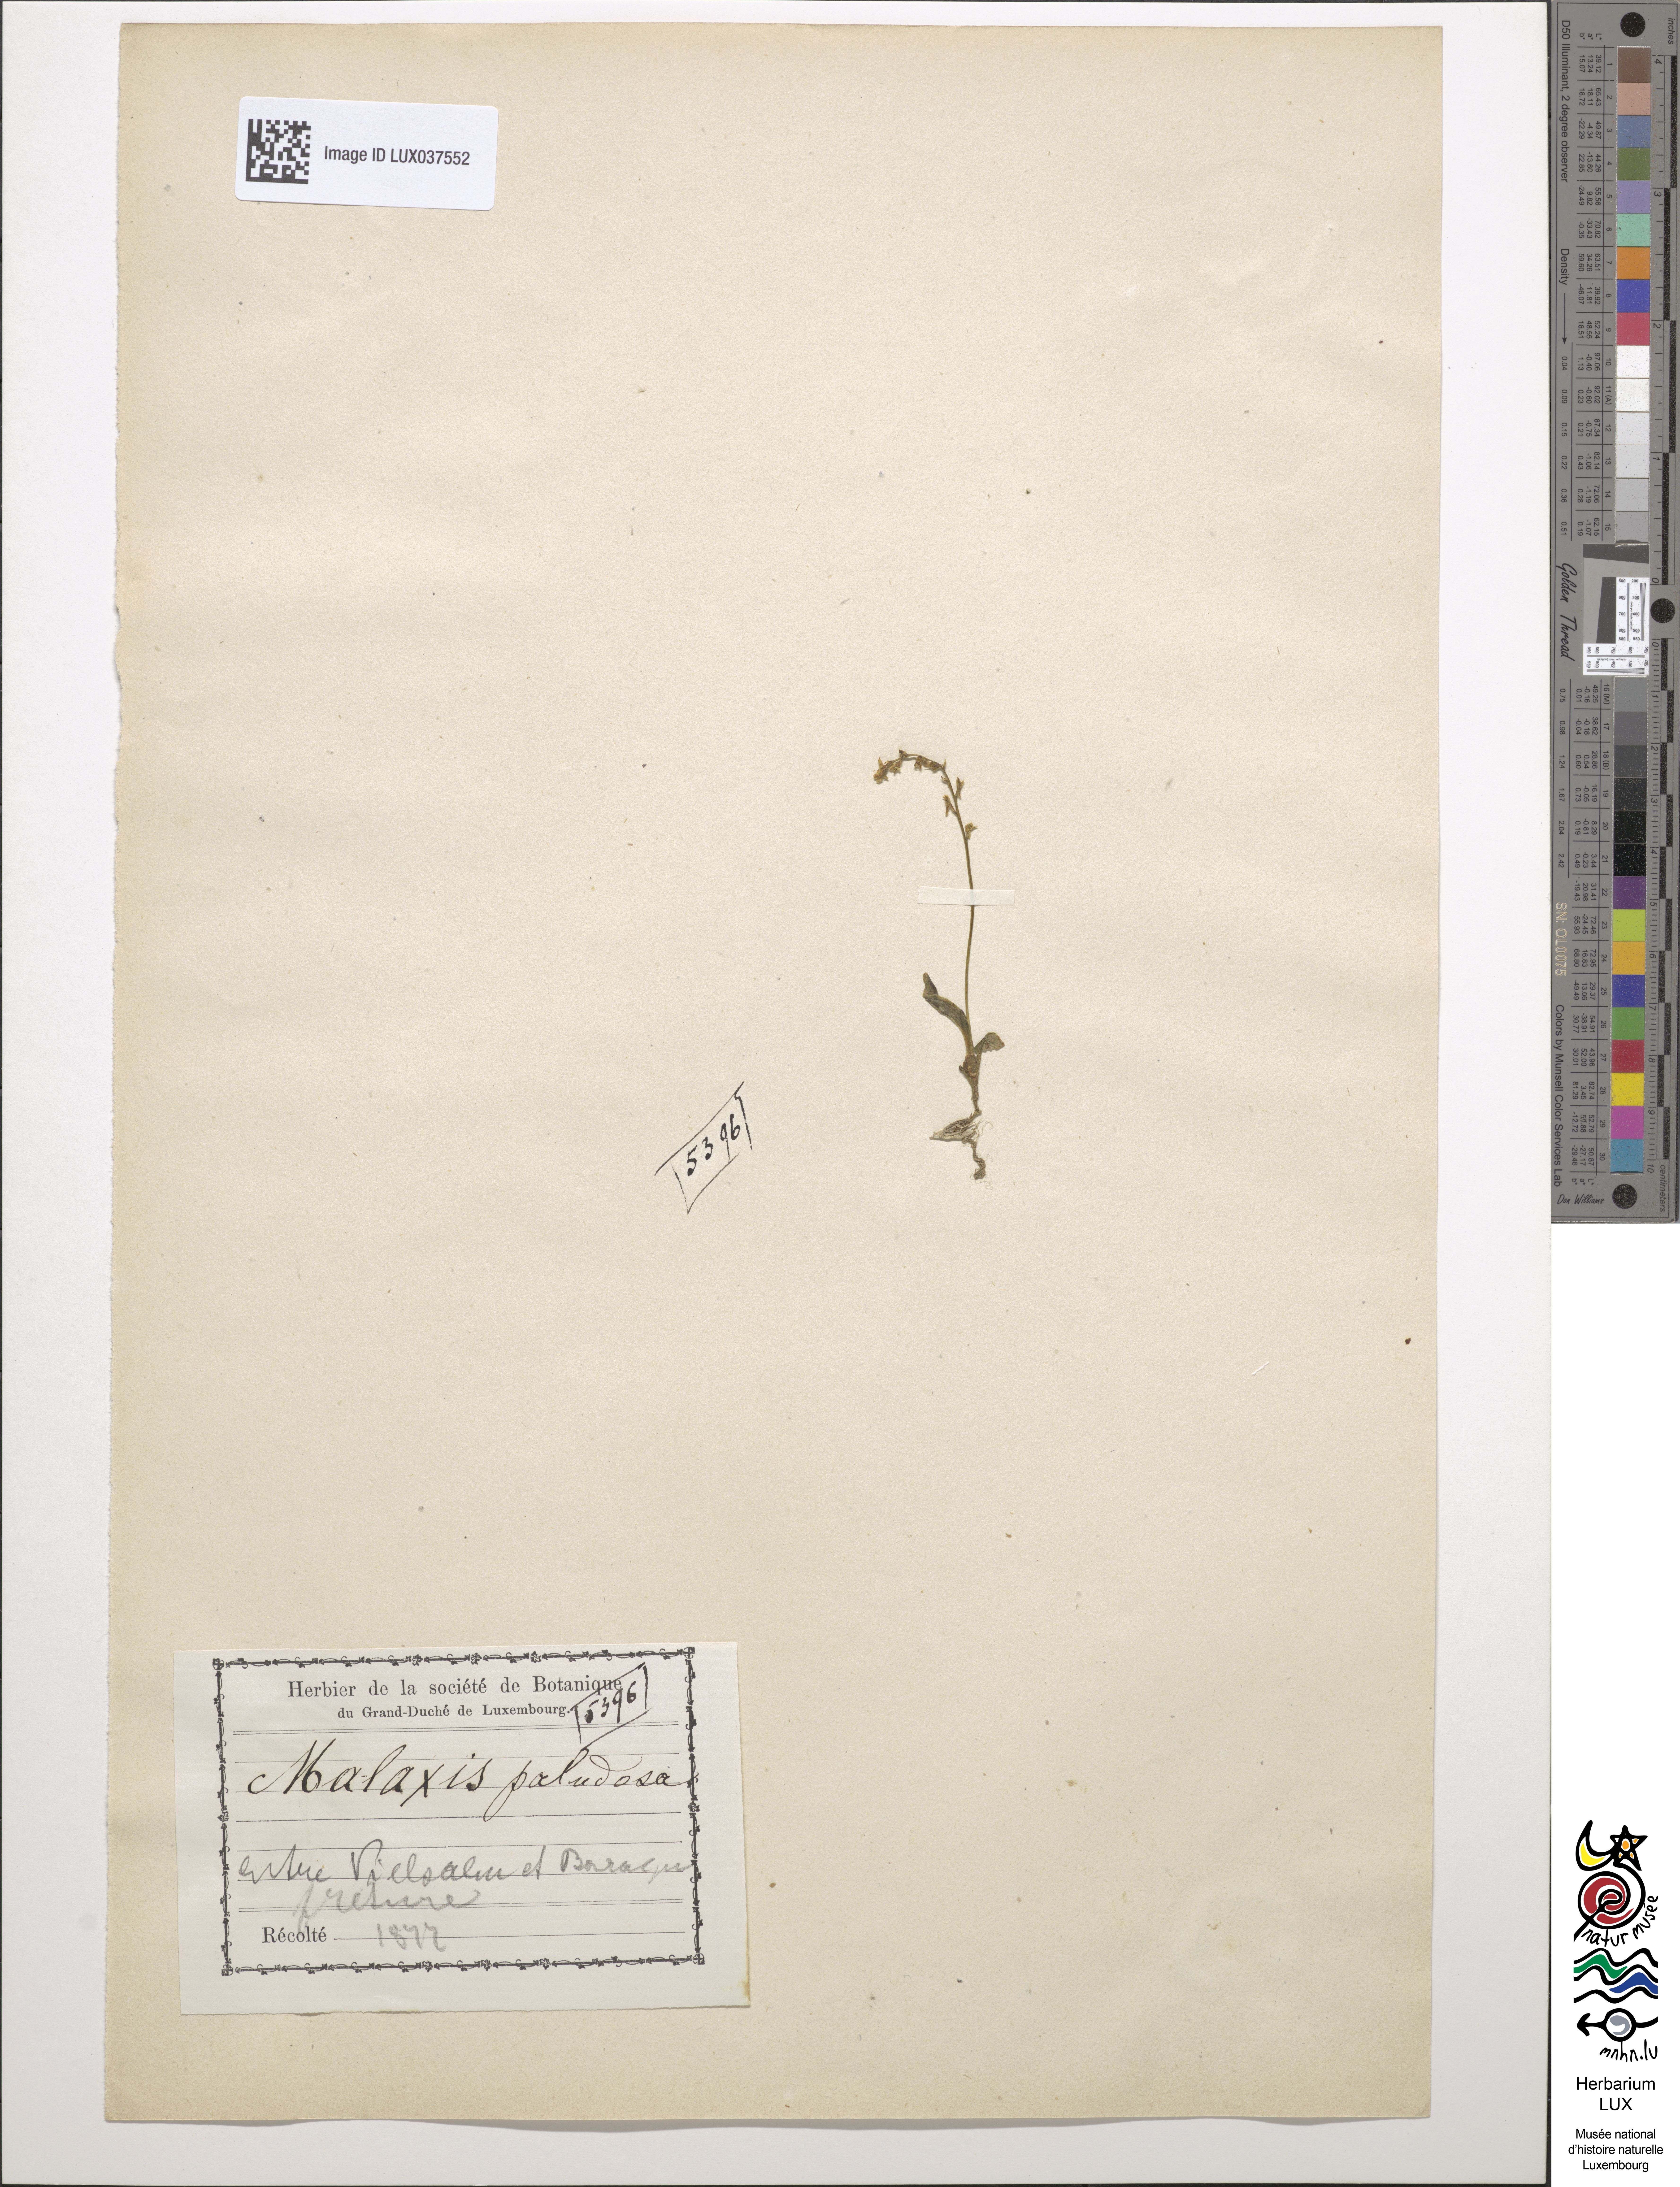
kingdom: Plantae
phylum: Tracheophyta
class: Liliopsida
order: Asparagales
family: Orchidaceae
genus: Hammarbya
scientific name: Hammarbya paludosa
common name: Bog orchid
